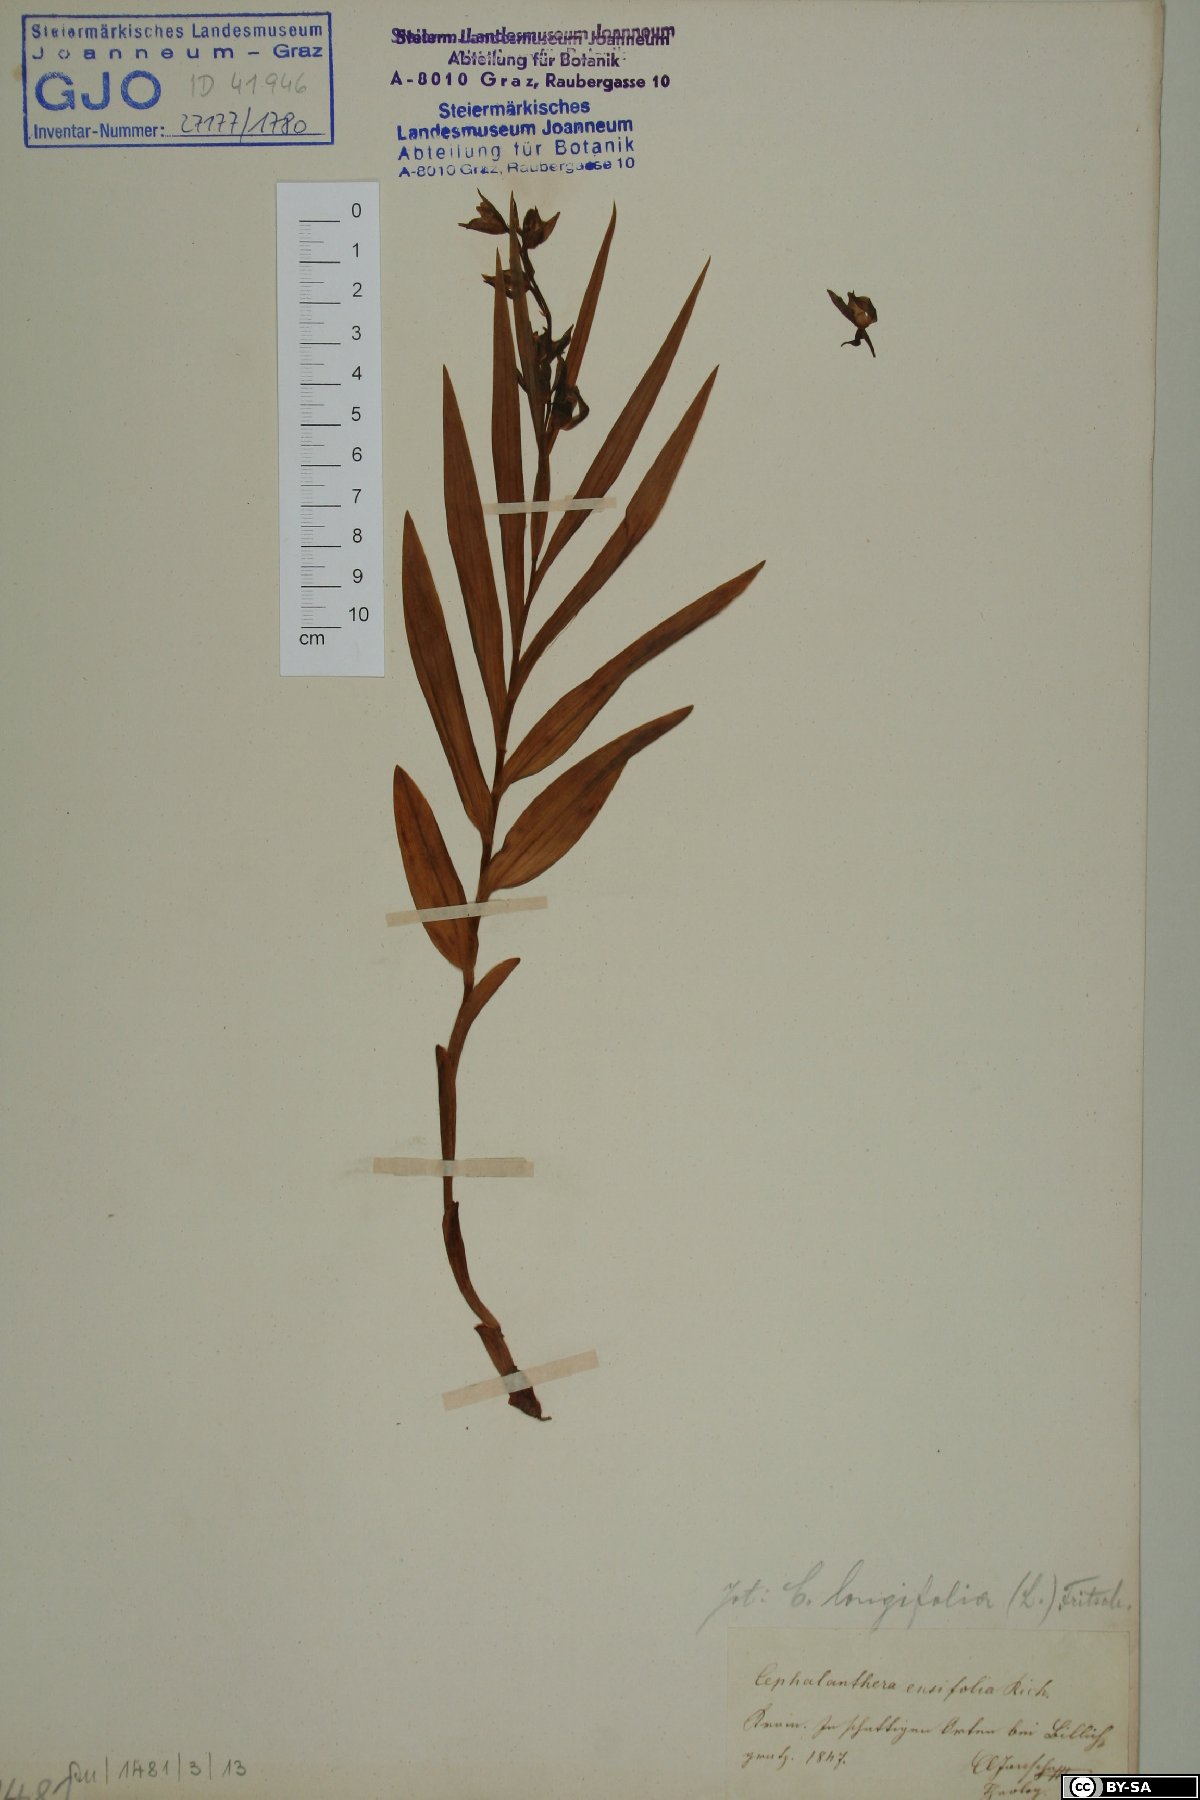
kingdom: Plantae
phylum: Tracheophyta
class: Liliopsida
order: Asparagales
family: Orchidaceae
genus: Cephalanthera
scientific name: Cephalanthera longifolia
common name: Narrow-leaved helleborine
